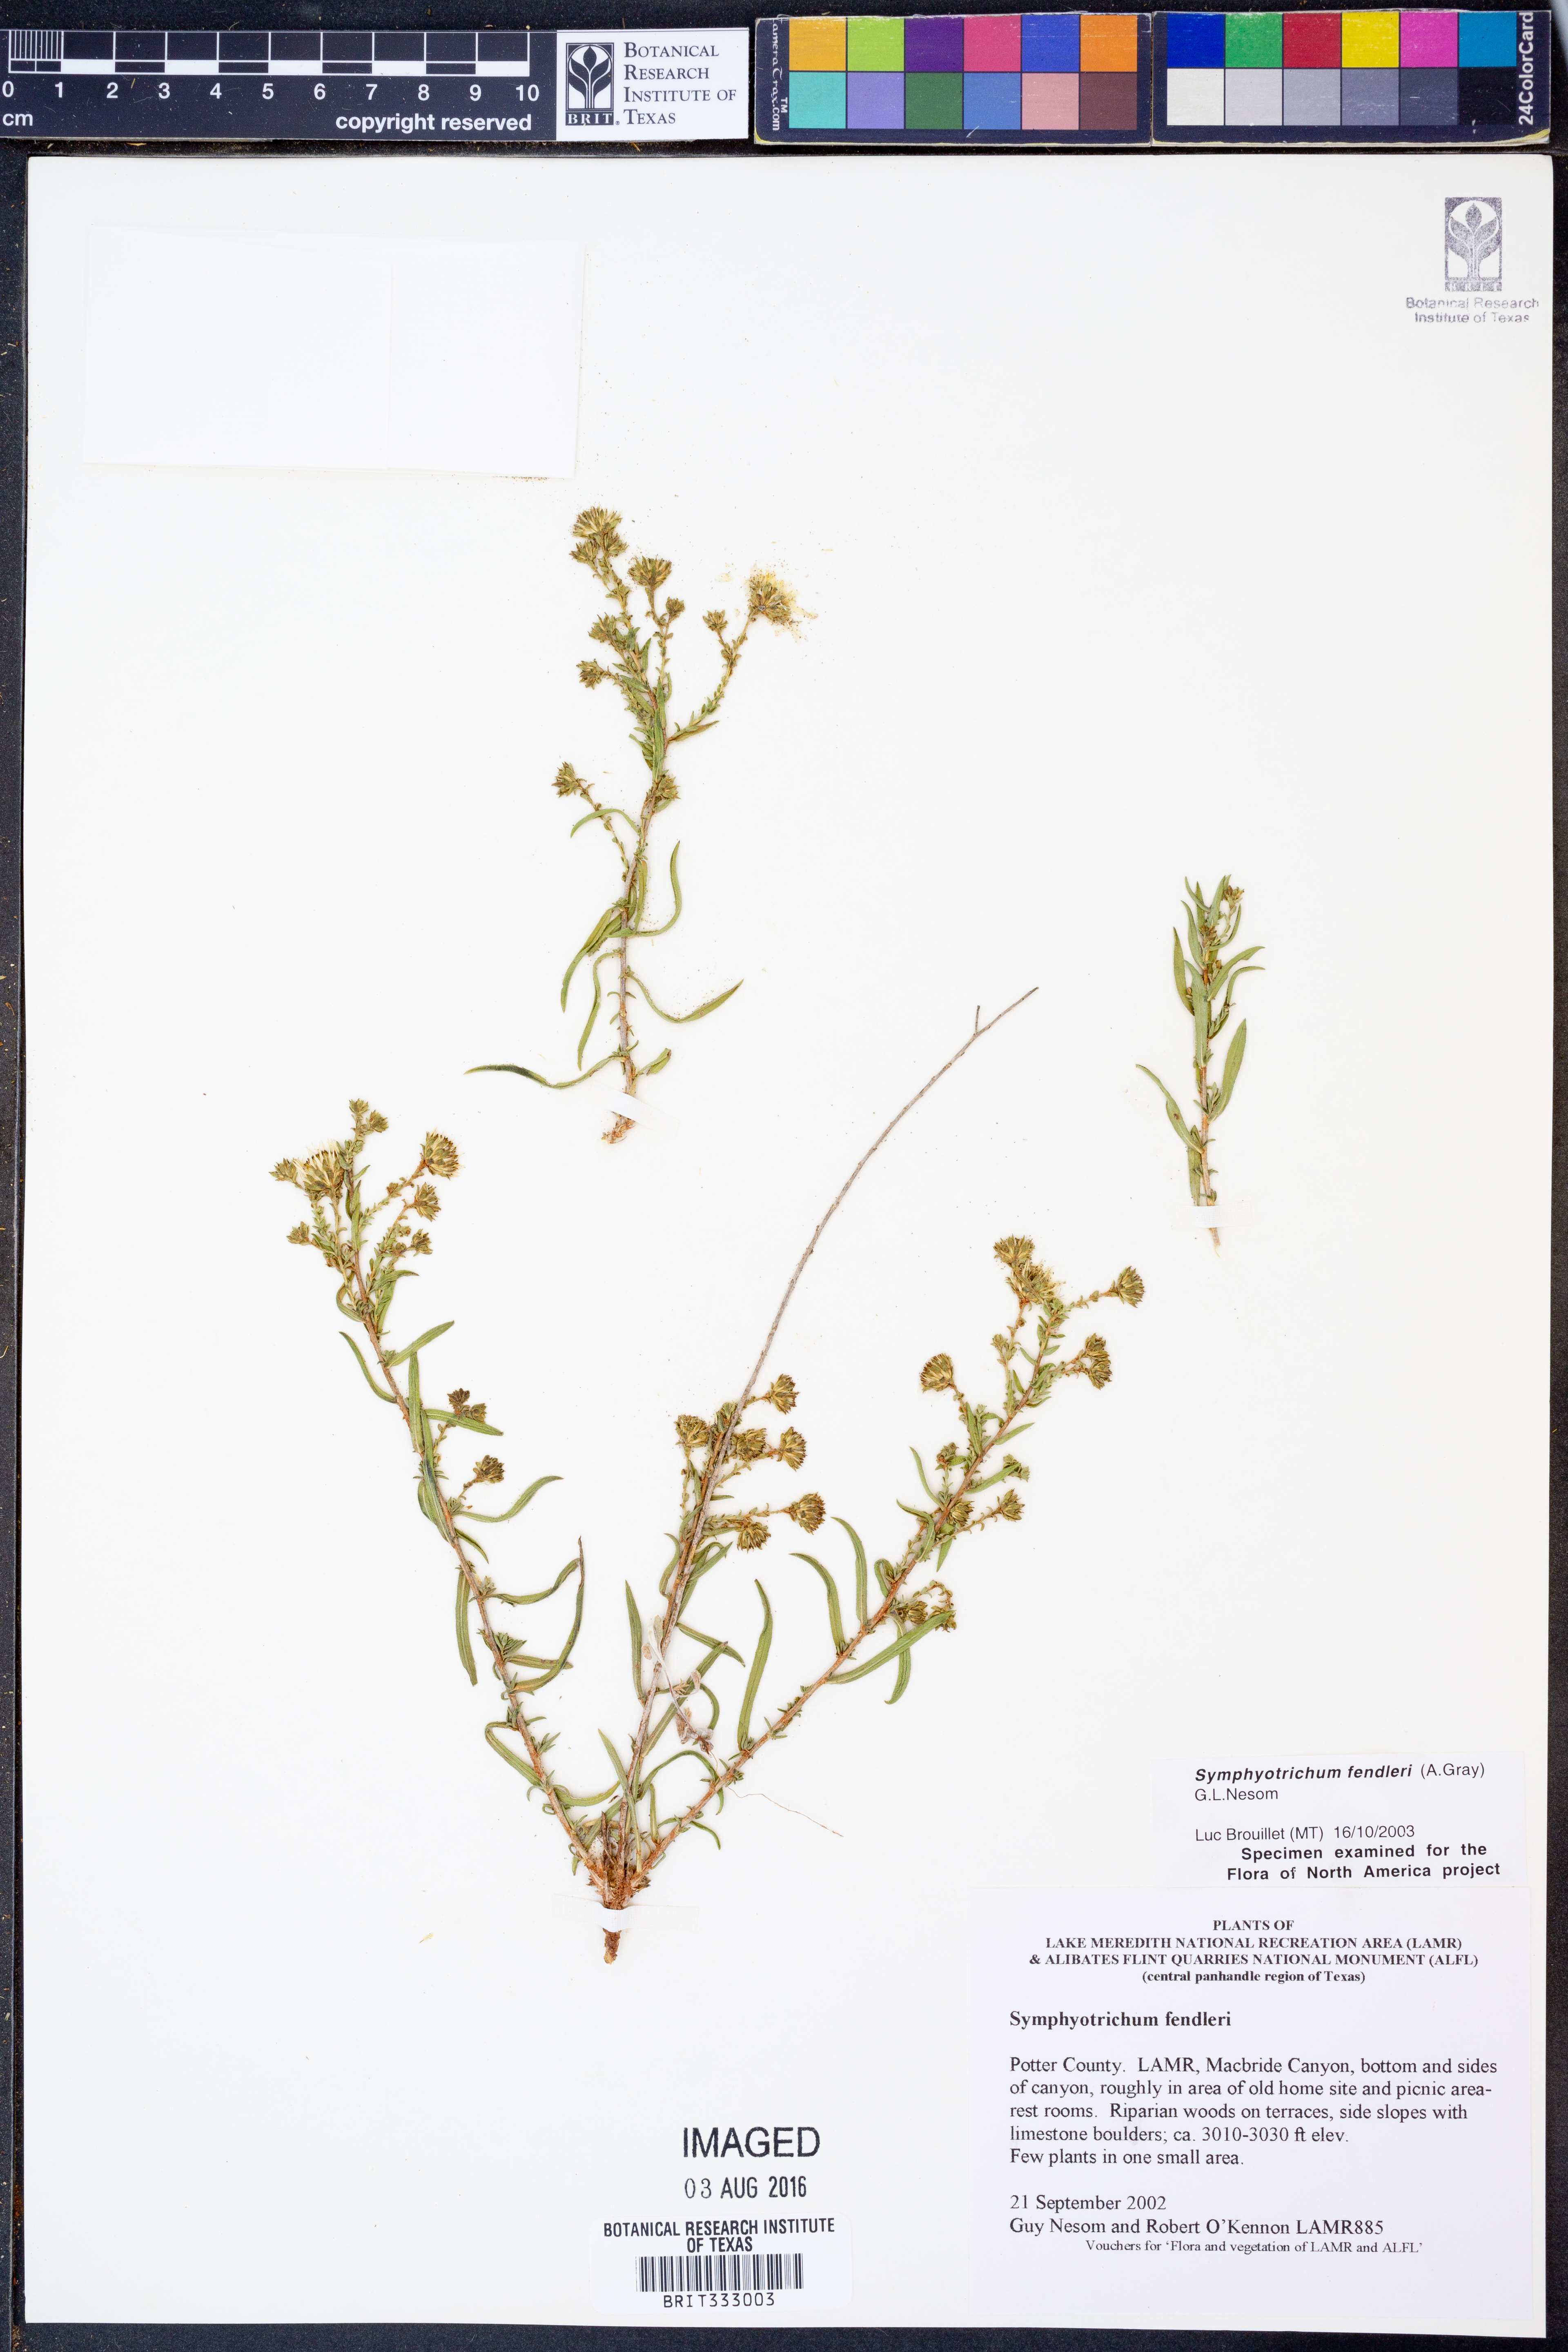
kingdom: Plantae
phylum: Tracheophyta
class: Magnoliopsida
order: Asterales
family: Asteraceae
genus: Symphyotrichum
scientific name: Symphyotrichum fendleri
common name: Fendler's aster
